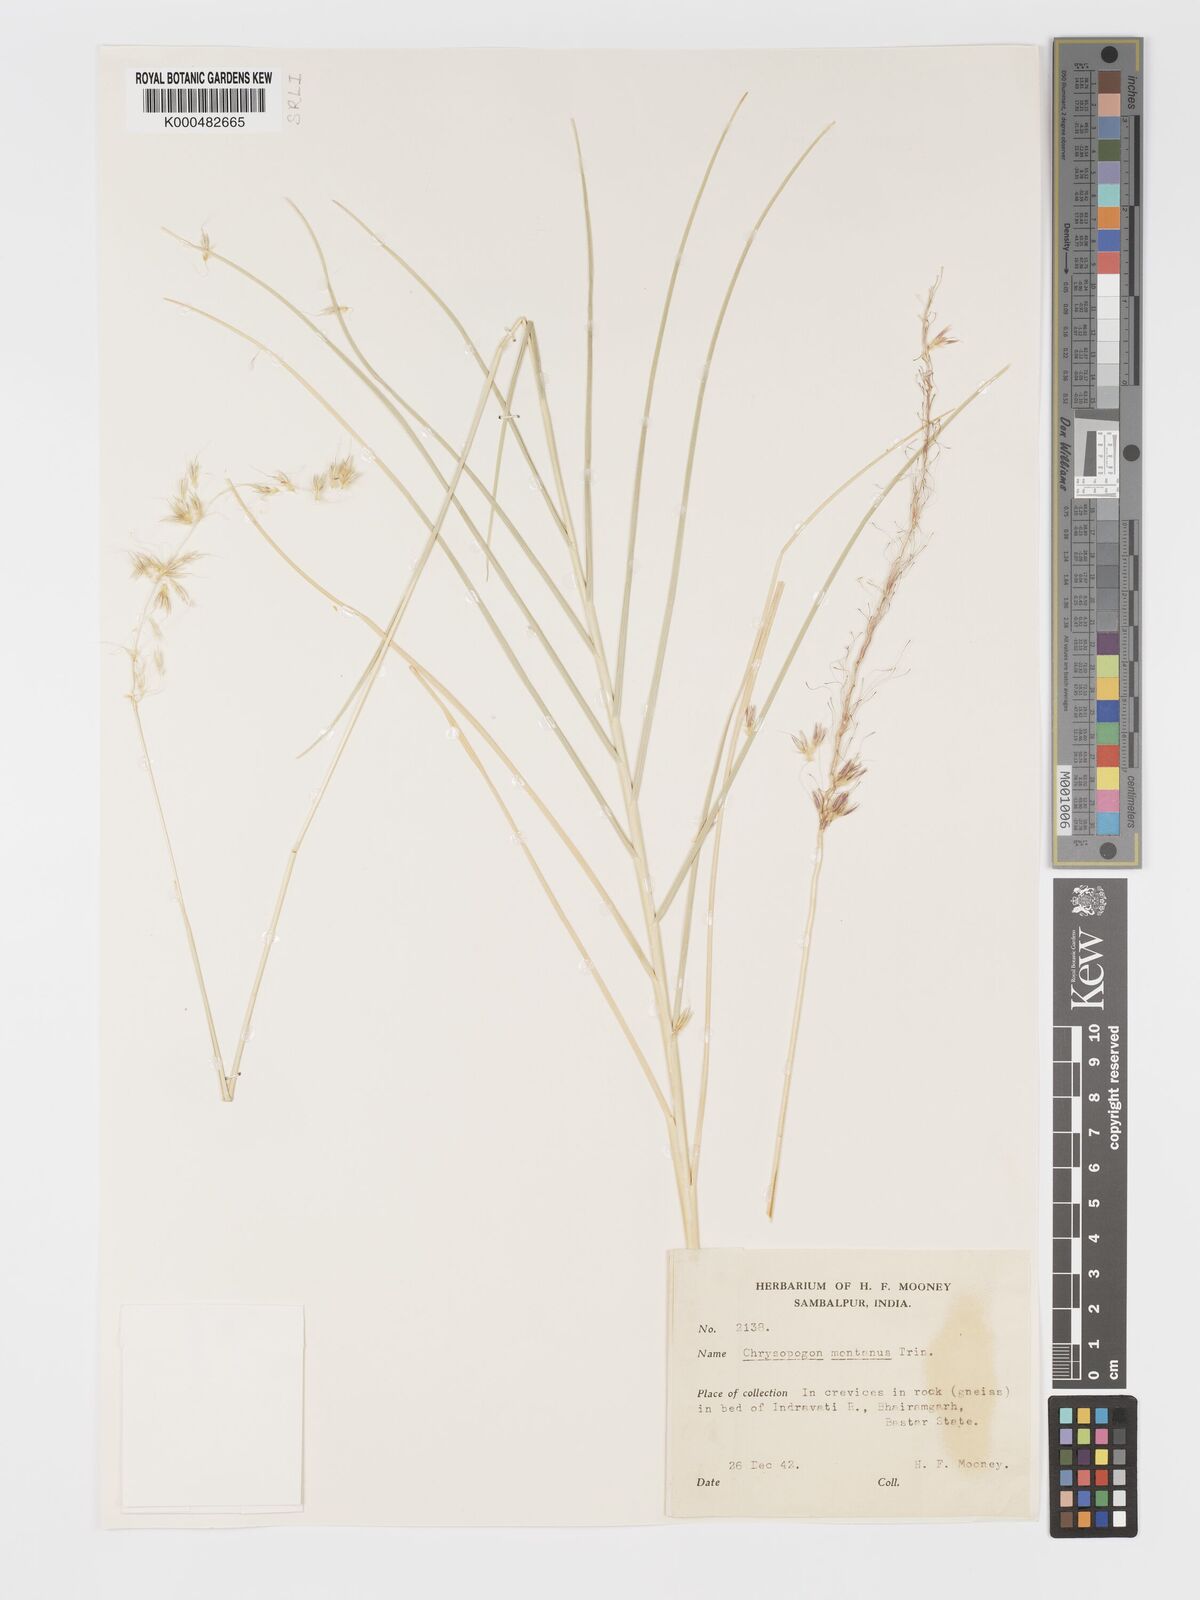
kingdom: Plantae
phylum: Tracheophyta
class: Liliopsida
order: Poales
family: Poaceae
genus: Chrysopogon
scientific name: Chrysopogon polyphyllus
